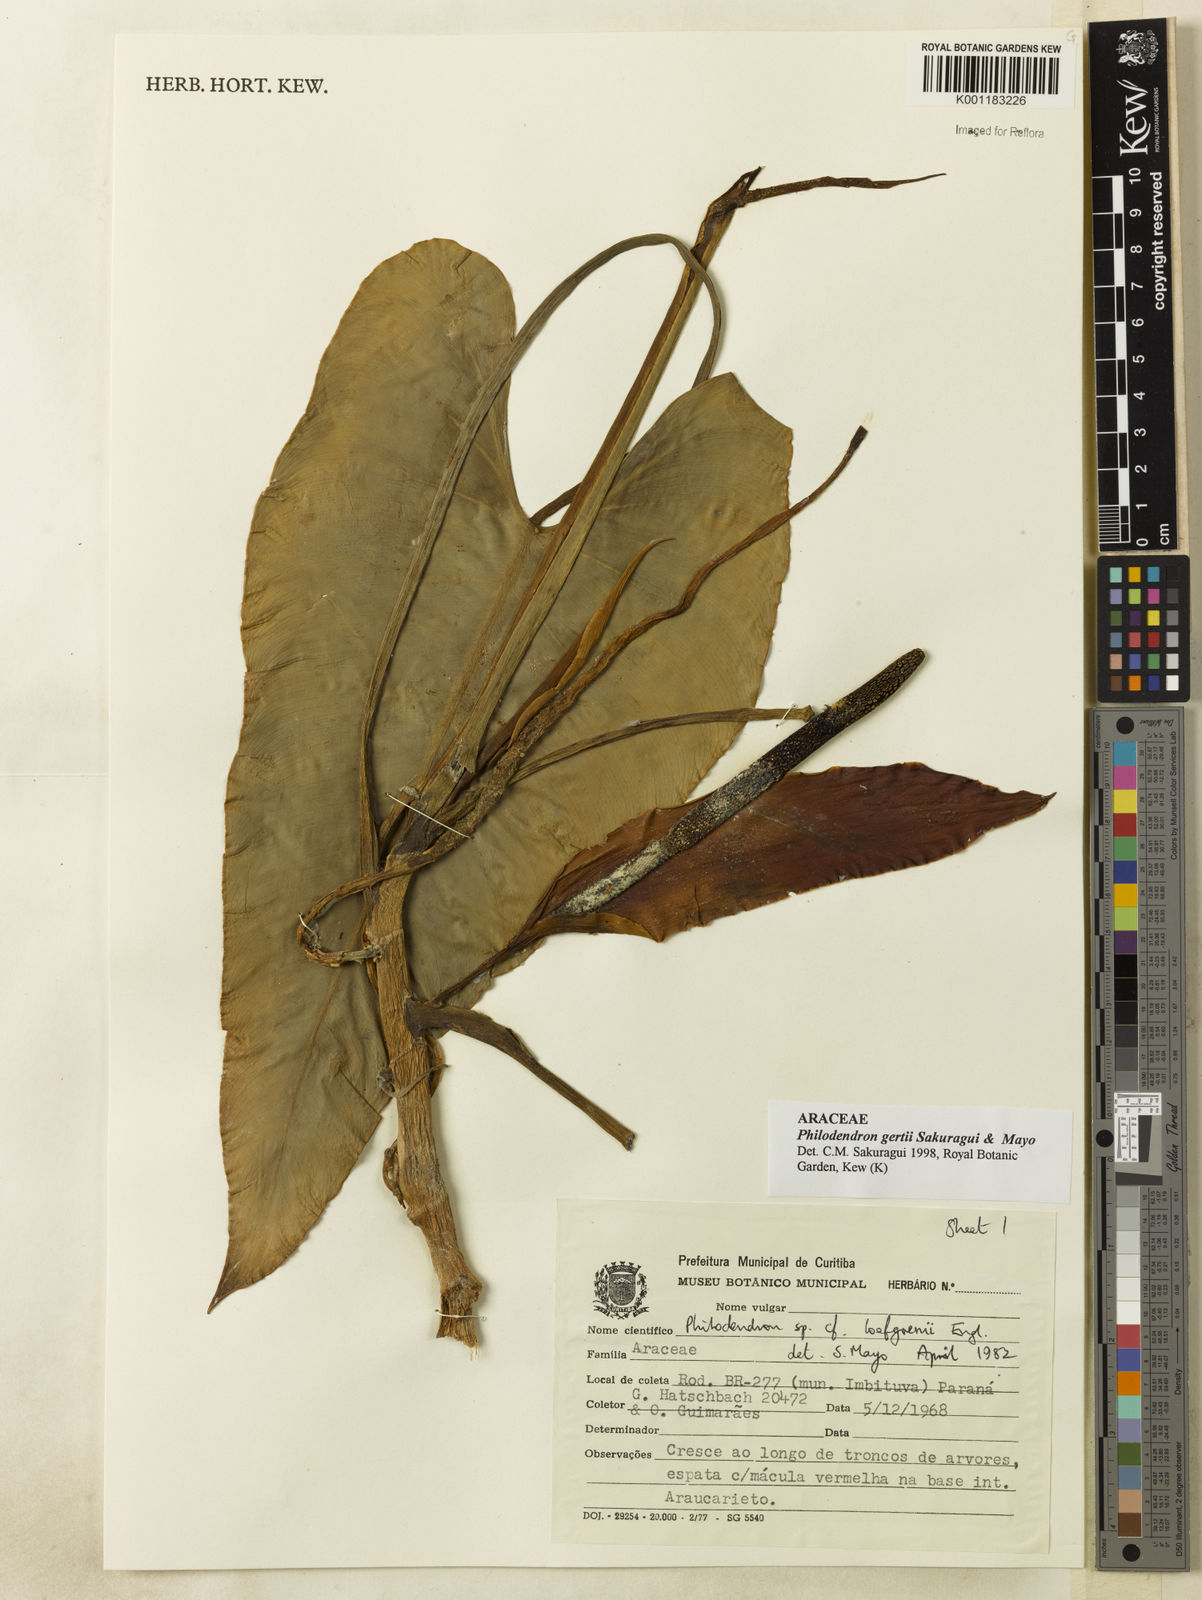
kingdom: Plantae
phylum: Tracheophyta
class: Liliopsida
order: Alismatales
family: Araceae
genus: Philodendron
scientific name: Philodendron
